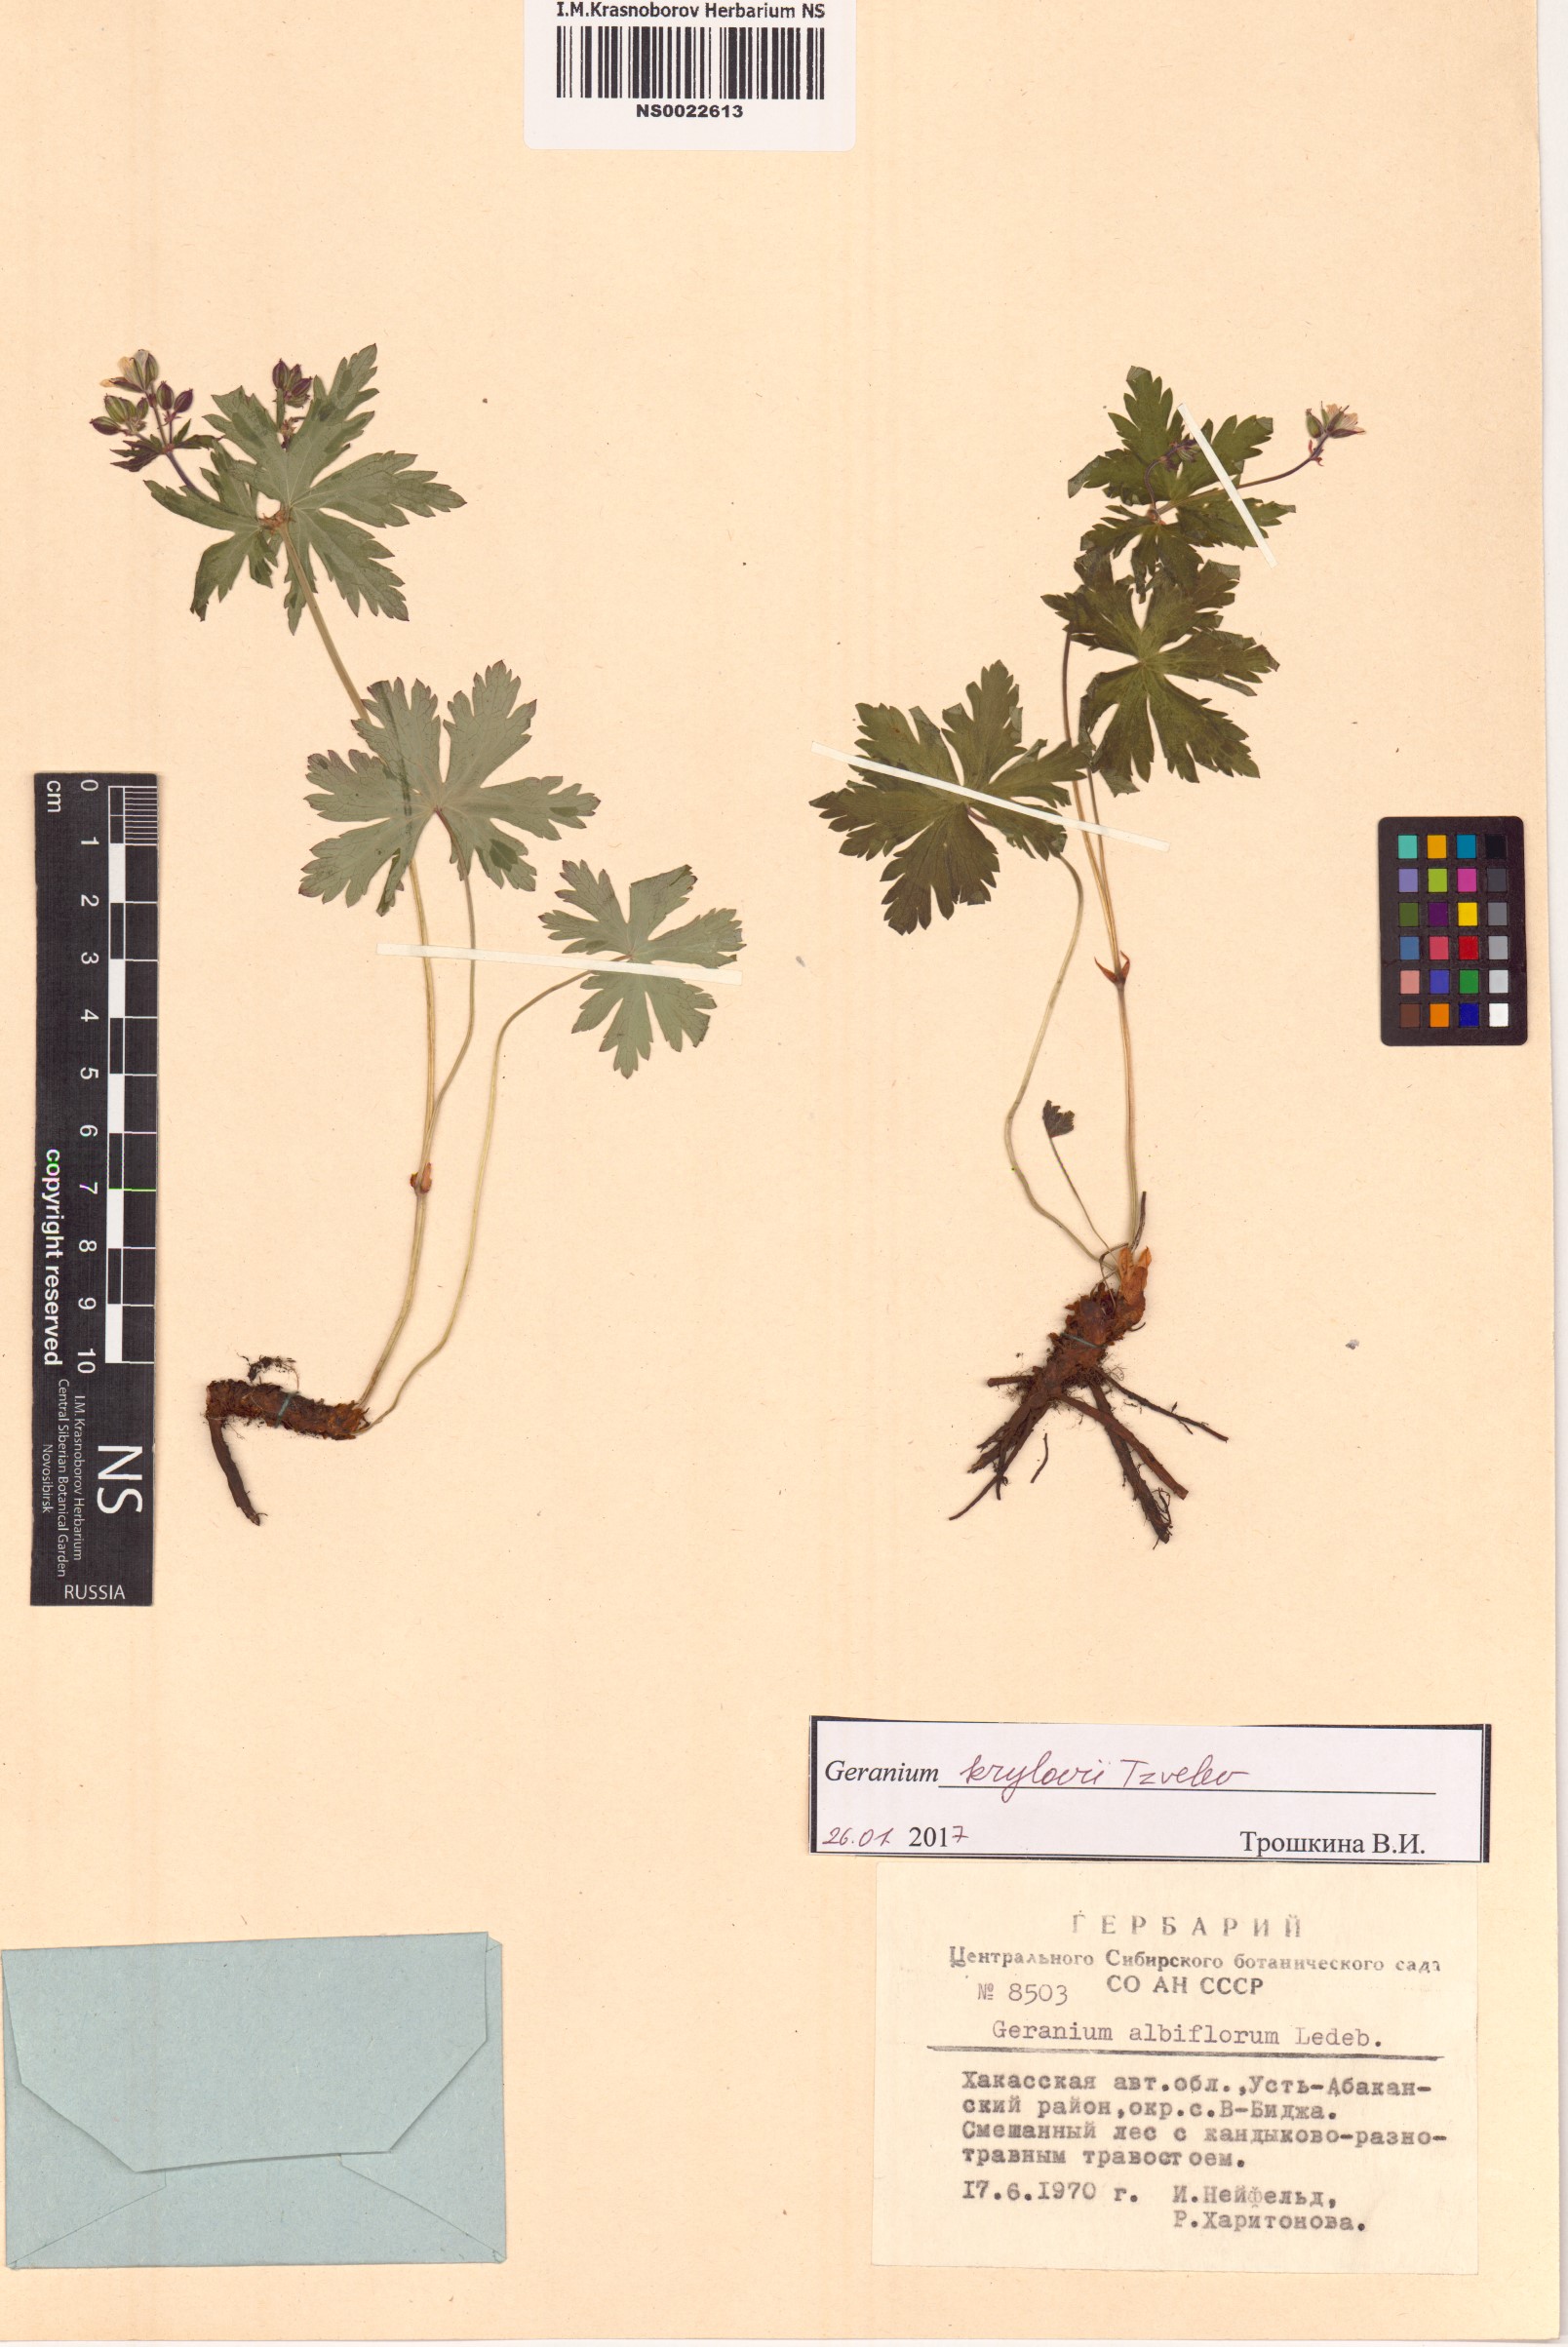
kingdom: Plantae
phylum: Tracheophyta
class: Magnoliopsida
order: Geraniales
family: Geraniaceae
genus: Geranium
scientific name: Geranium sylvaticum
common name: Wood crane's-bill
